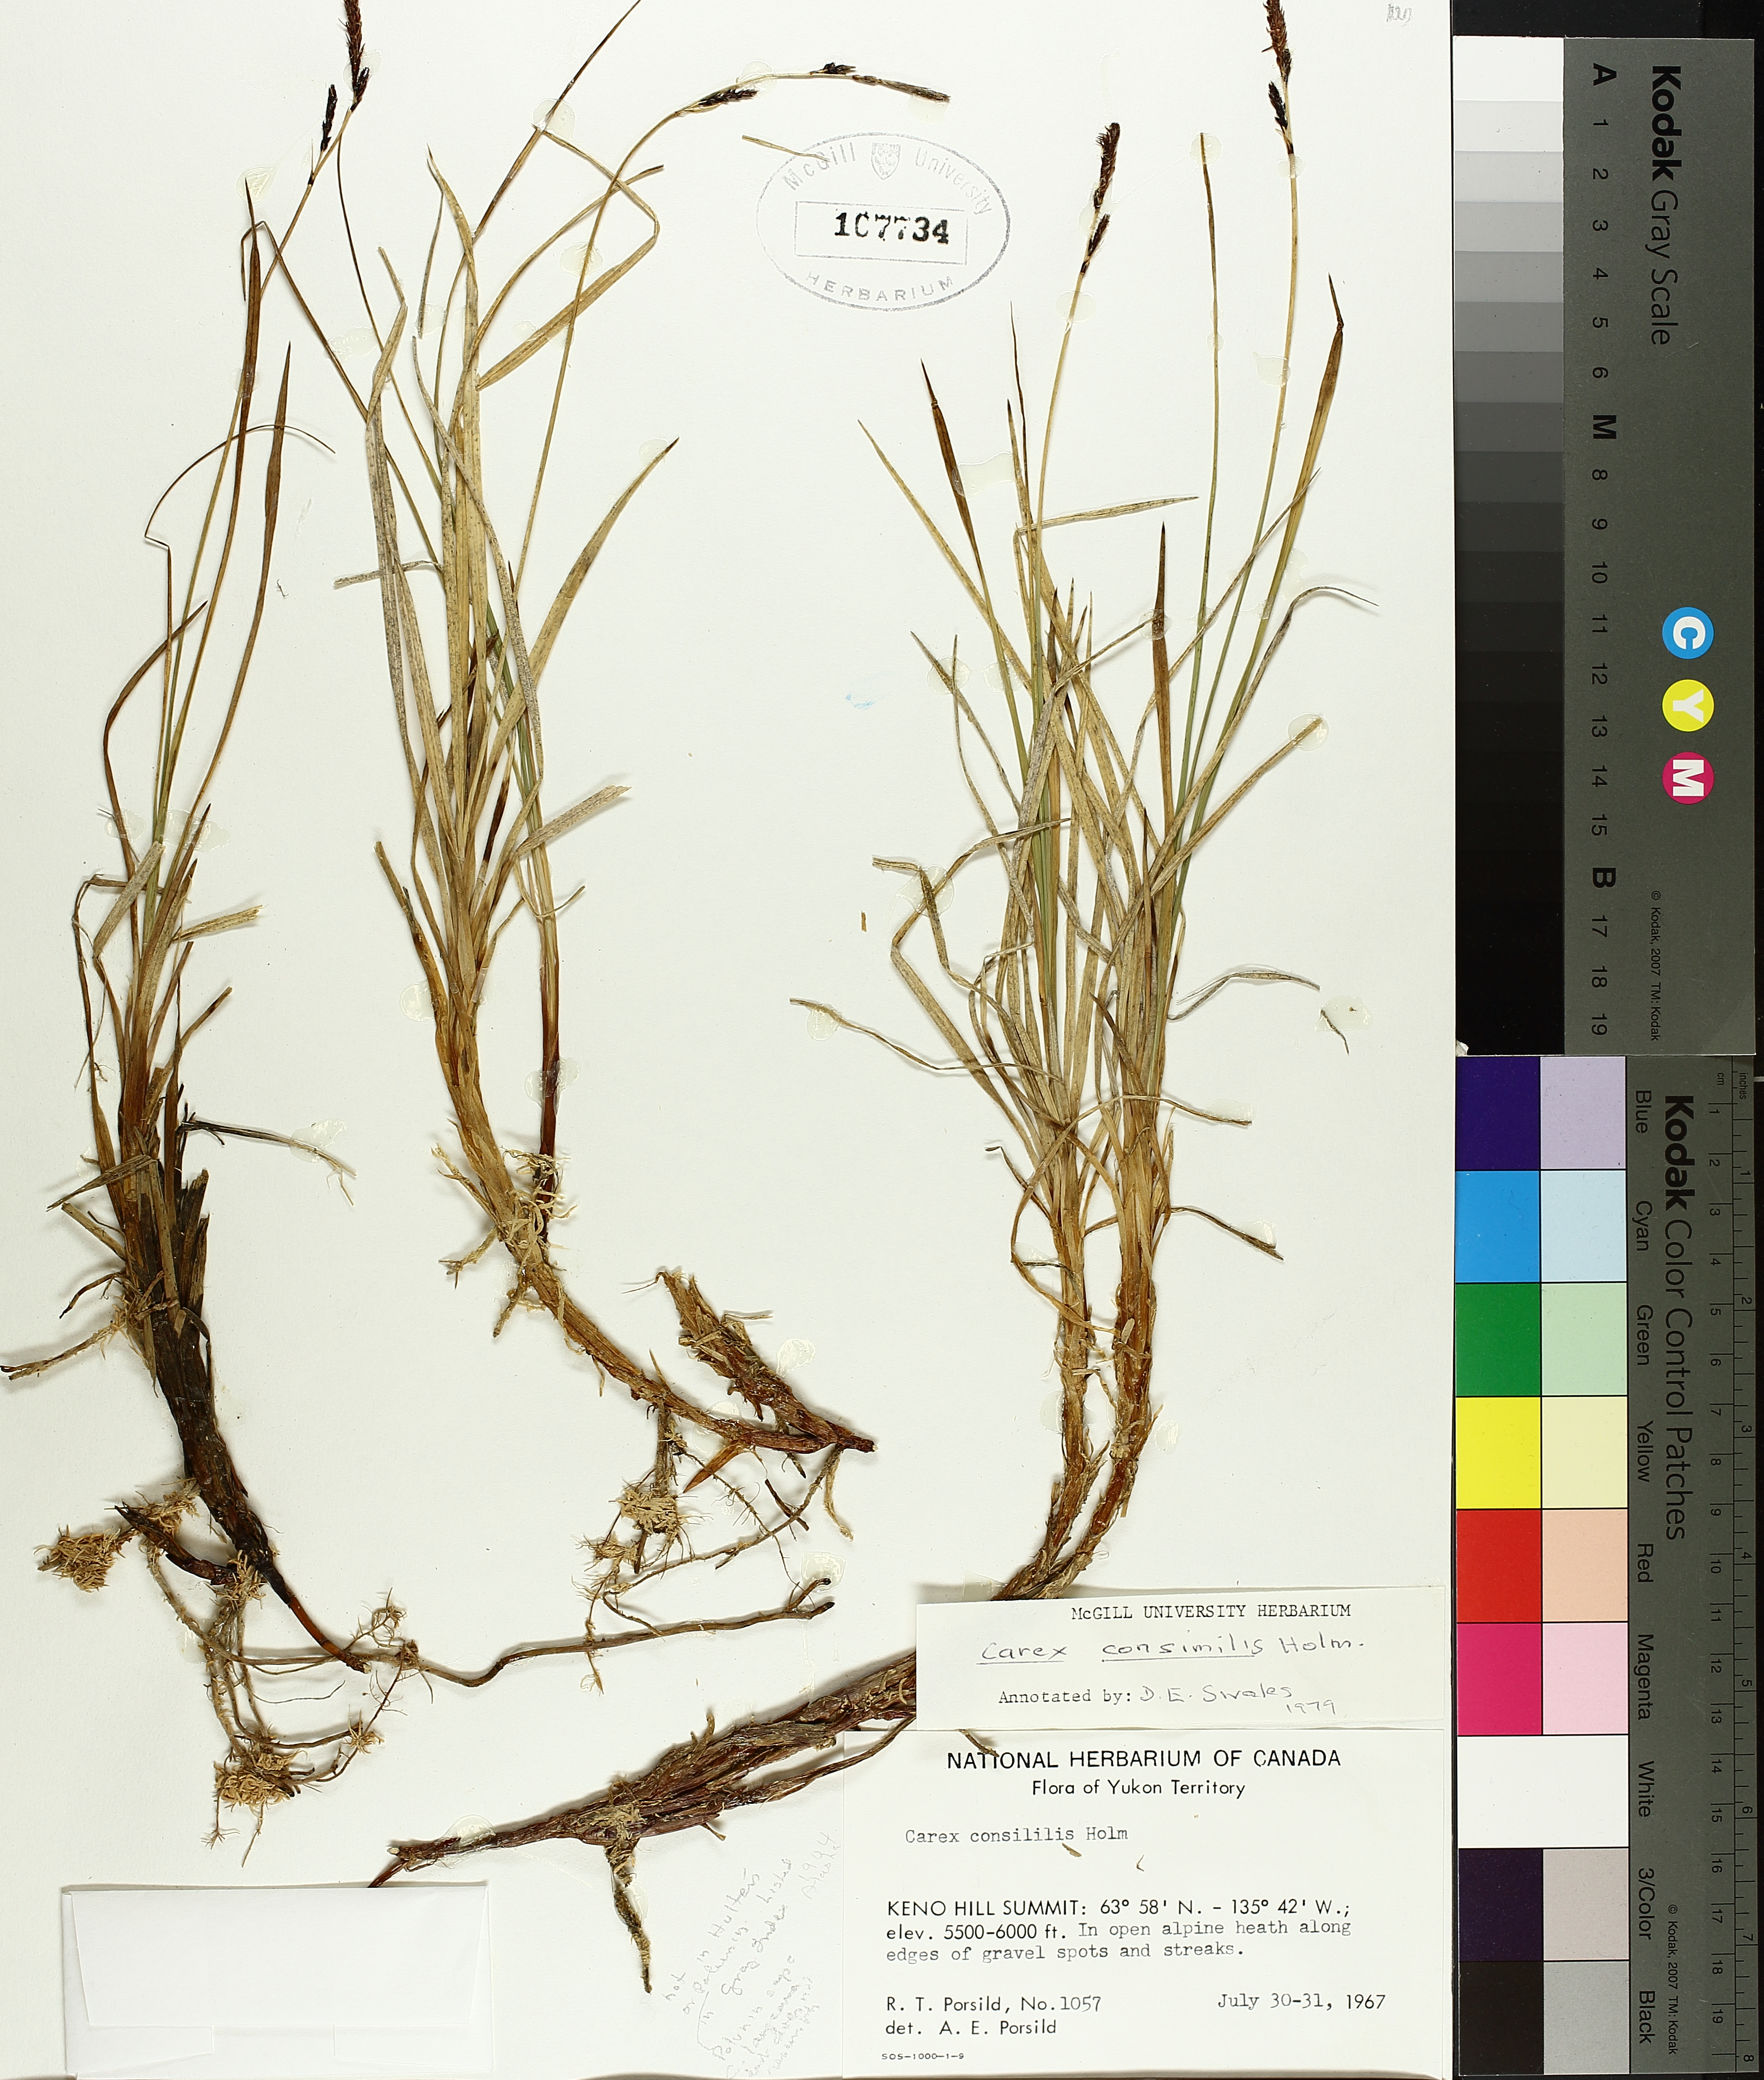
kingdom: Plantae
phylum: Tracheophyta
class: Liliopsida
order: Poales
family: Cyperaceae
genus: Carex
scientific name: Carex bigelowii
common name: Stiff sedge
